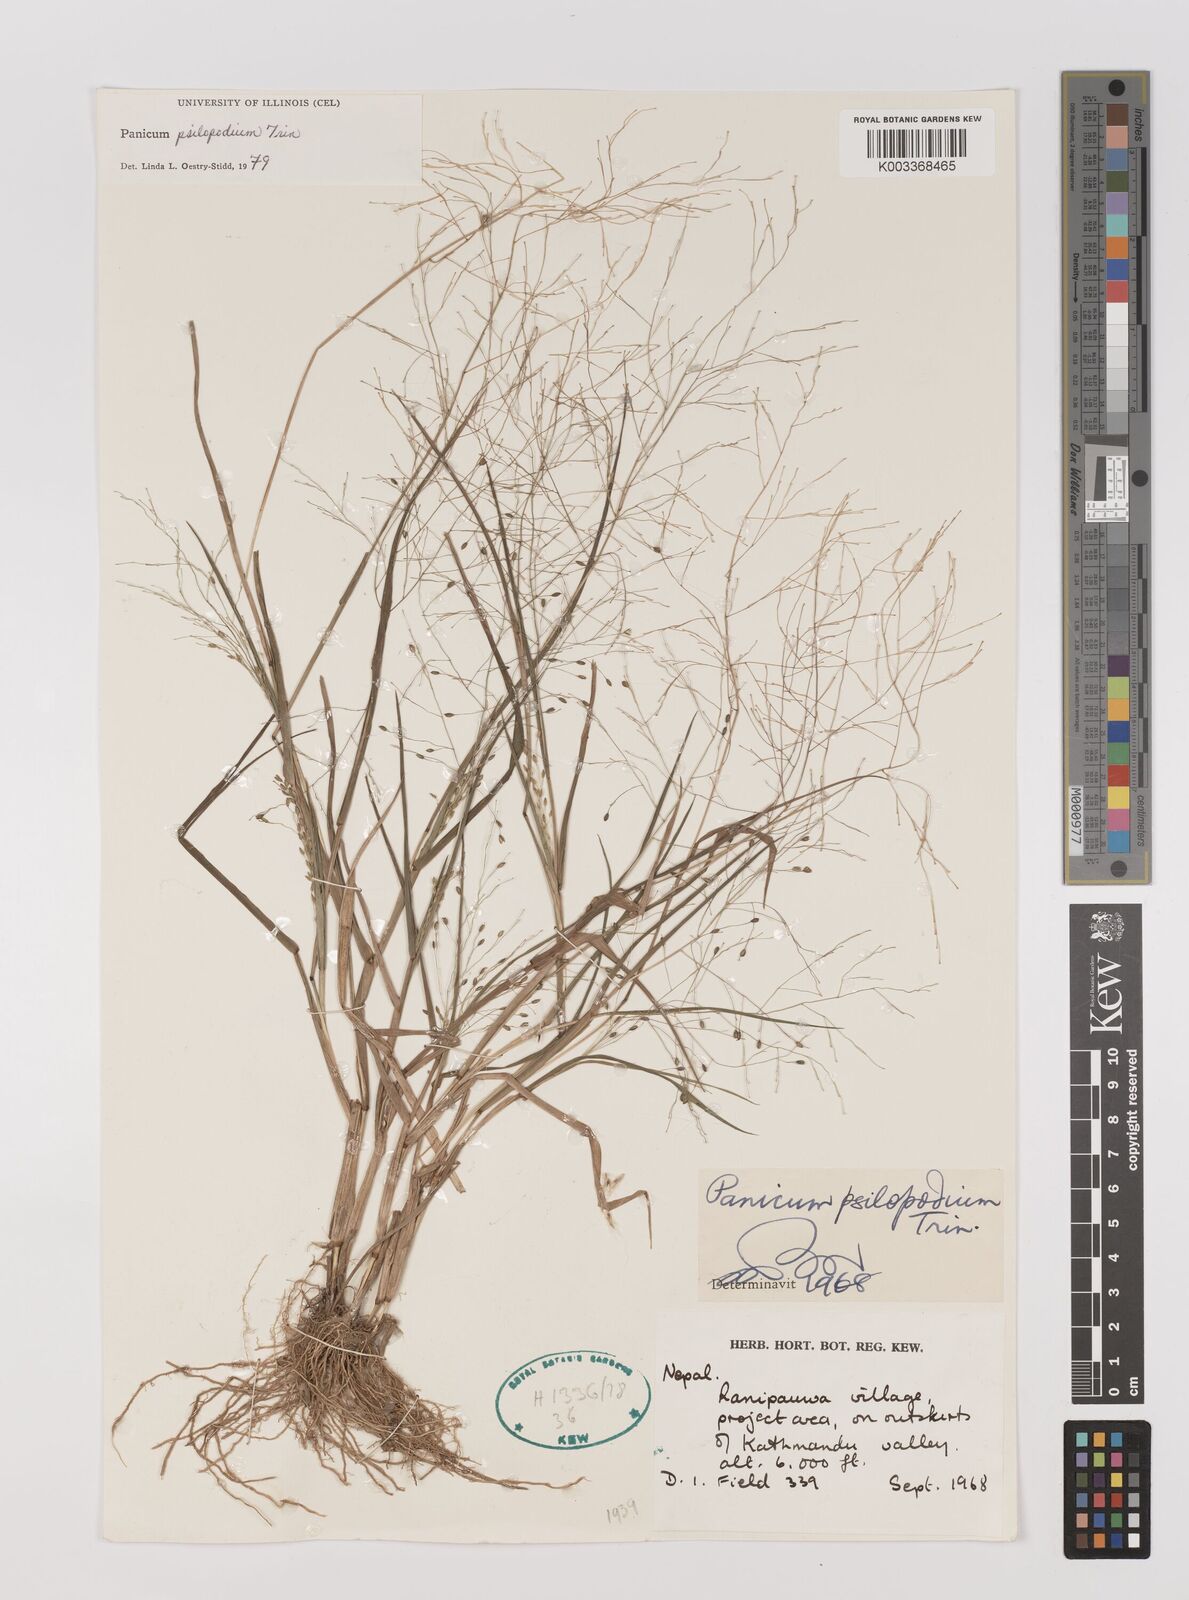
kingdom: Plantae
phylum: Tracheophyta
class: Liliopsida
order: Poales
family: Poaceae
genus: Panicum
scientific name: Panicum sumatrense
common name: Little millet
